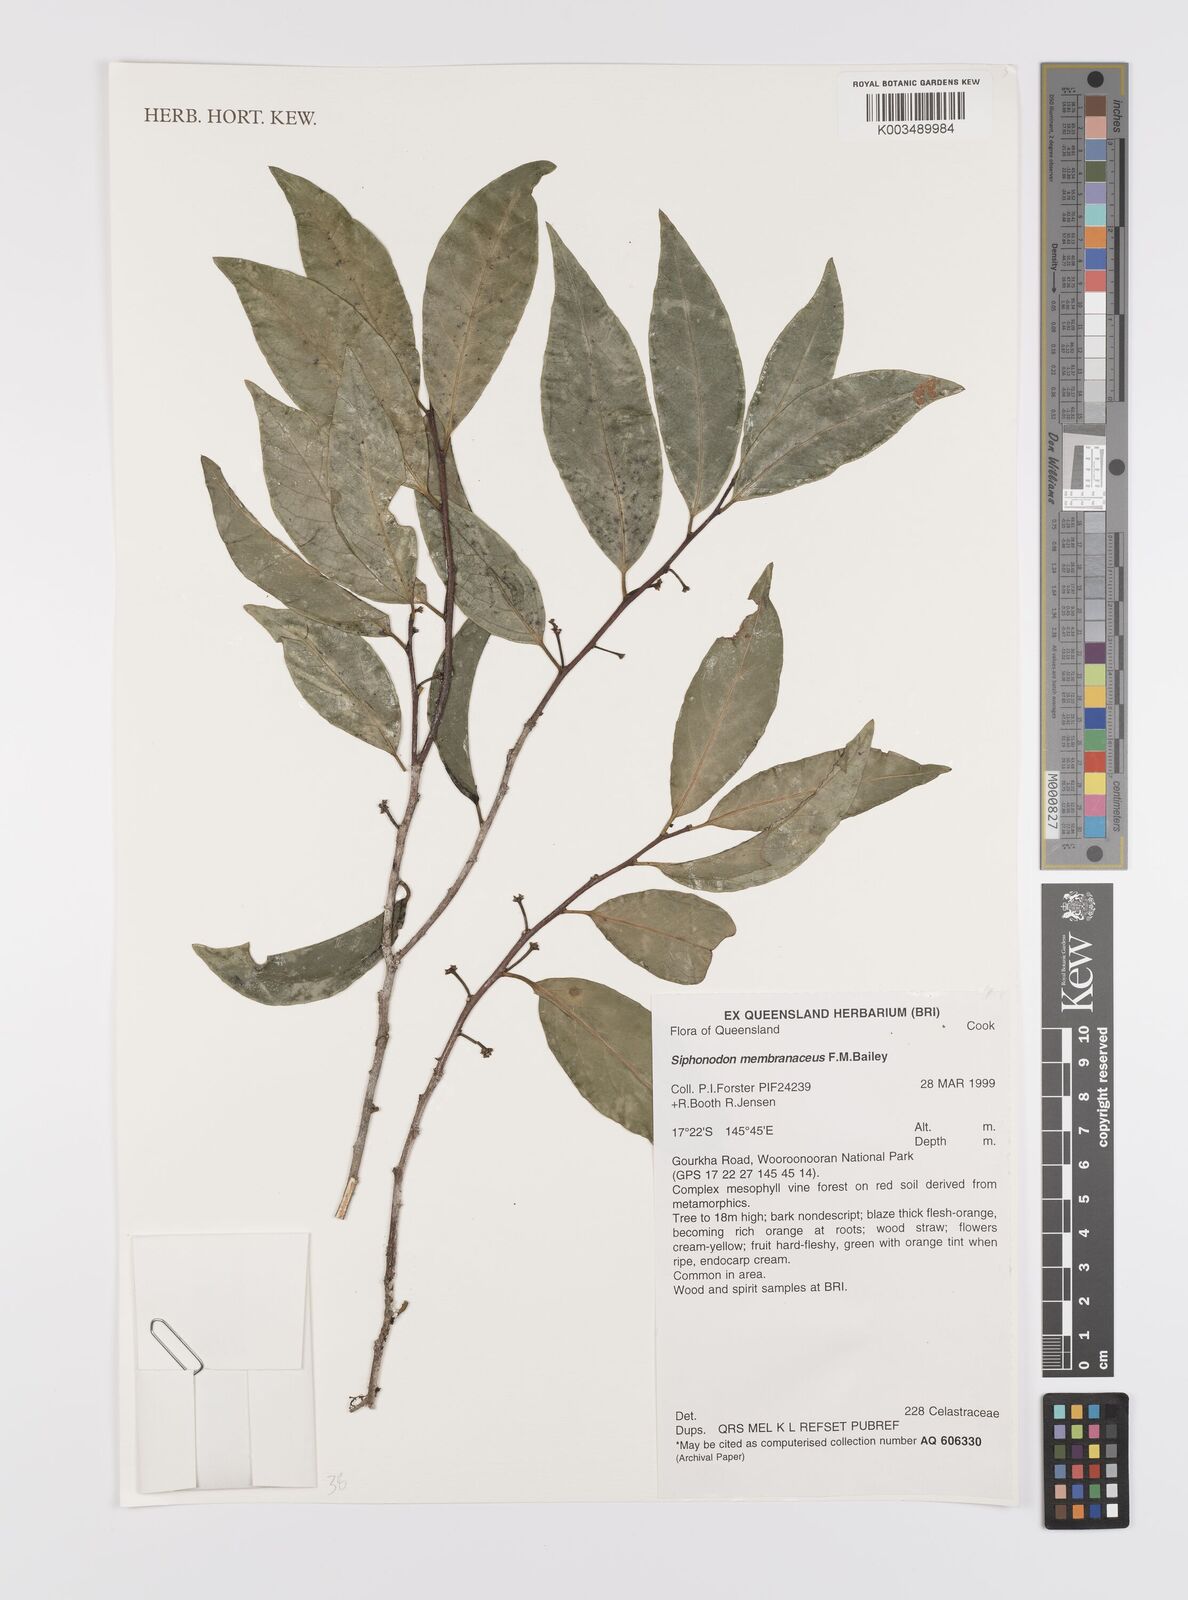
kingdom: Plantae
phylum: Tracheophyta
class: Magnoliopsida
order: Celastrales
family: Celastraceae
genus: Siphonodon
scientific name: Siphonodon membranaceus
